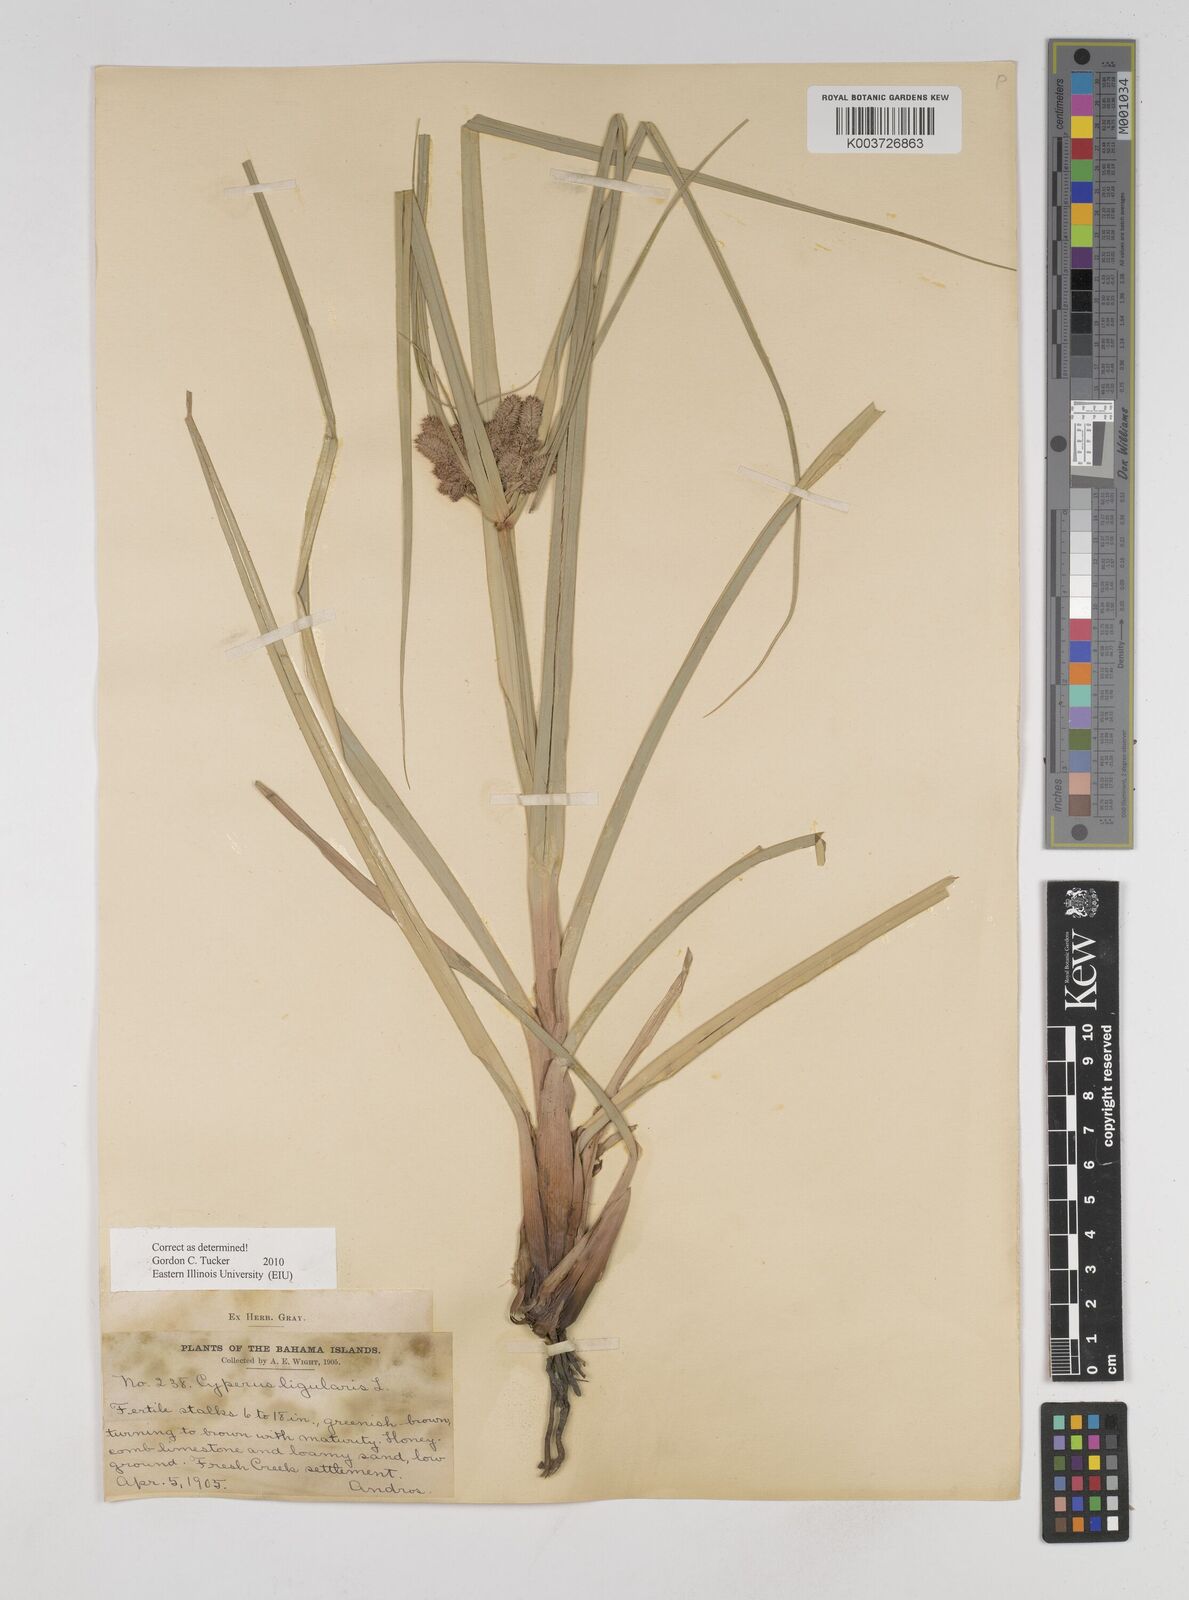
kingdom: Plantae
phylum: Tracheophyta
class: Liliopsida
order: Poales
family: Cyperaceae
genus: Cyperus
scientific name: Cyperus ligularis
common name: Swamp flat sedge
